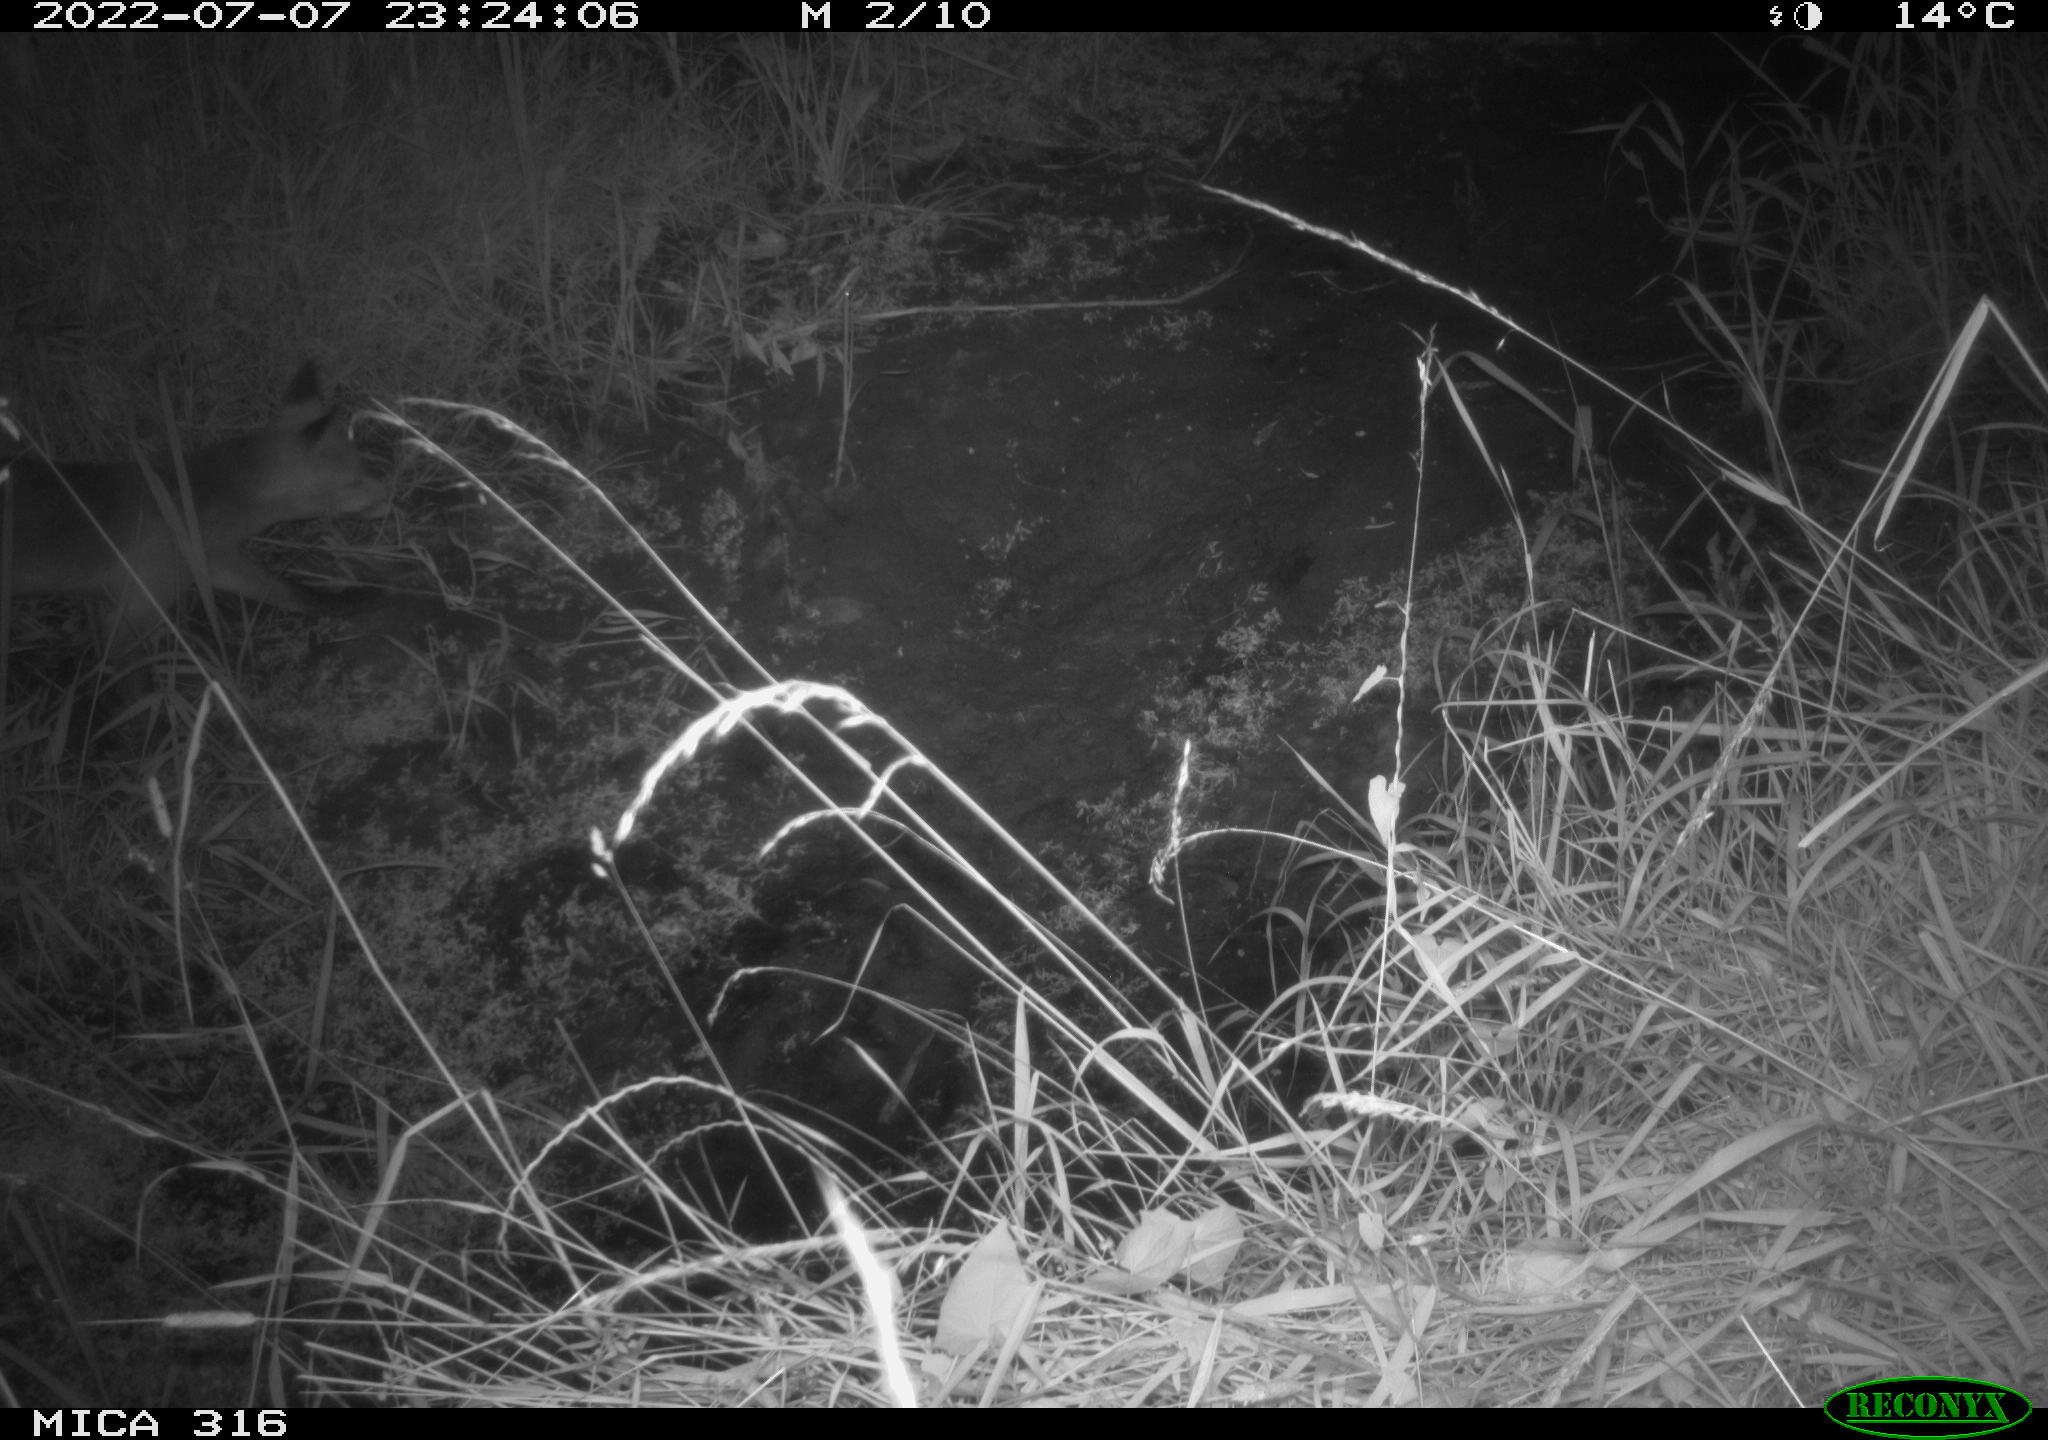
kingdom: Animalia
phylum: Chordata
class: Mammalia
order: Carnivora
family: Canidae
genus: Vulpes
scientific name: Vulpes vulpes
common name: Red fox
